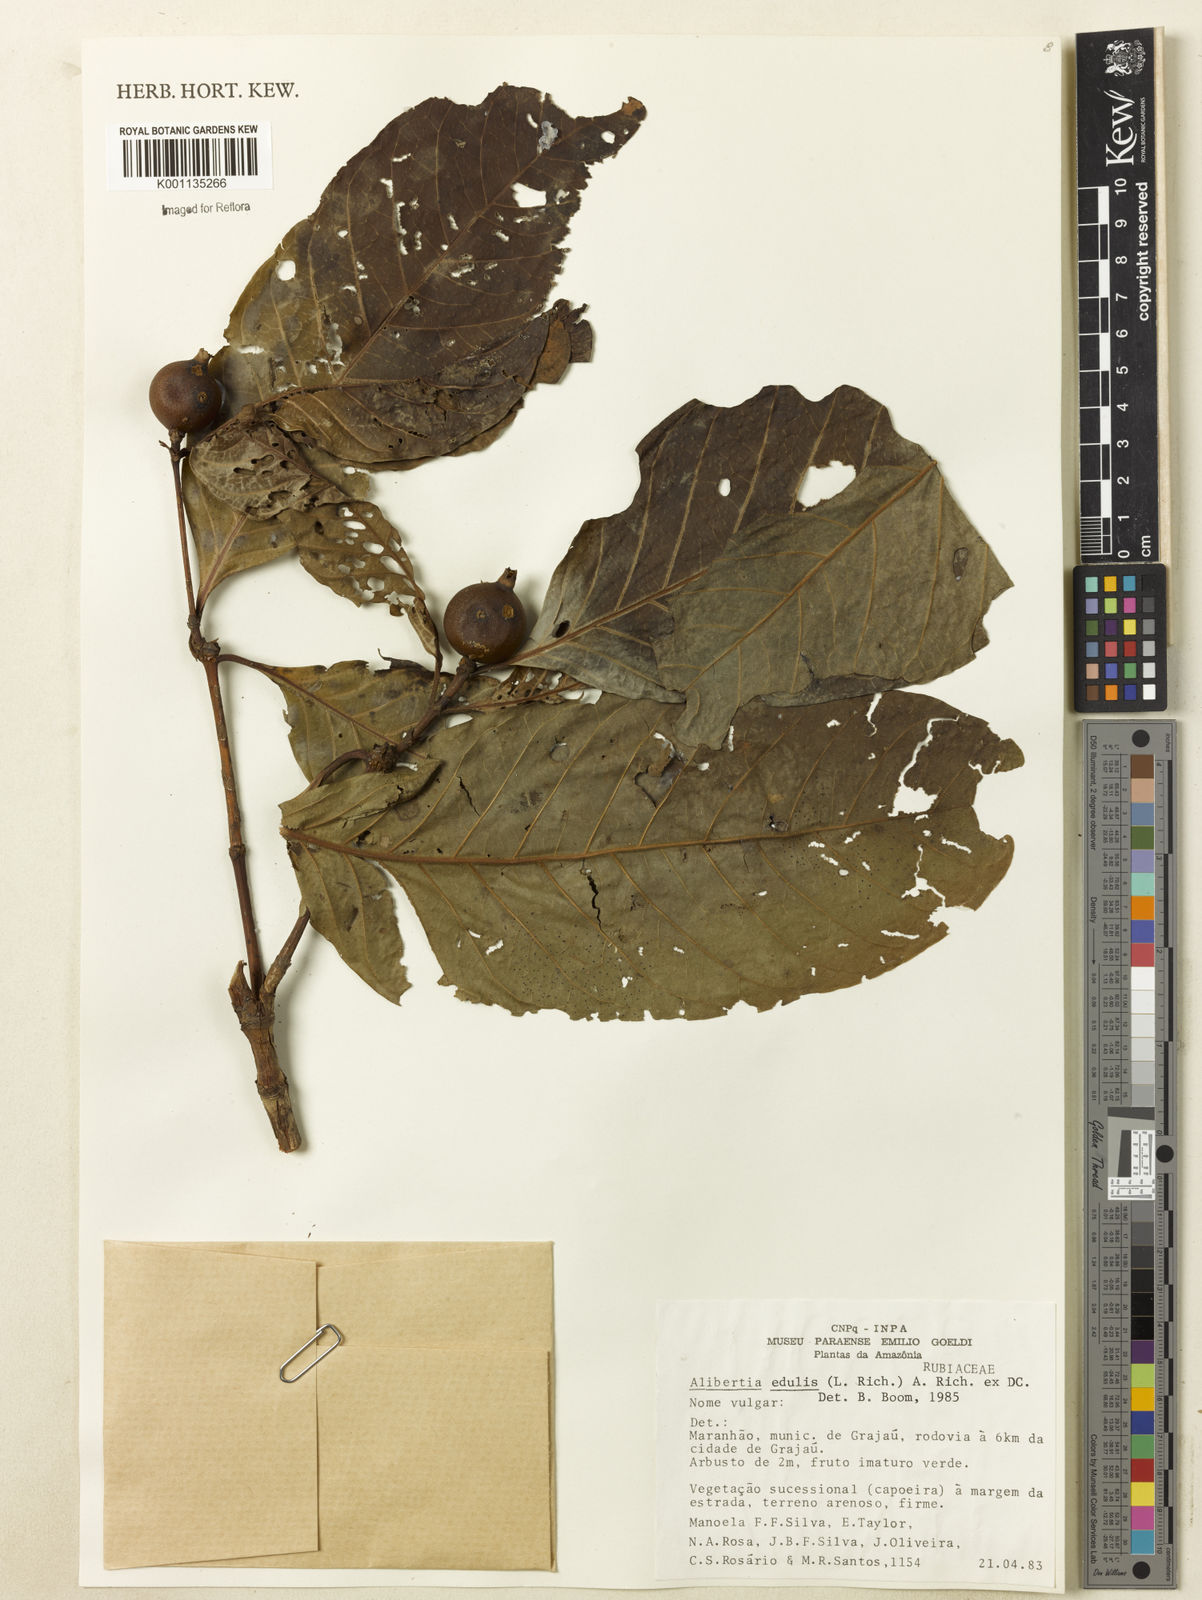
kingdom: Plantae
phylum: Tracheophyta
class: Magnoliopsida
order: Gentianales
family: Rubiaceae
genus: Alibertia
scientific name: Alibertia edulis
